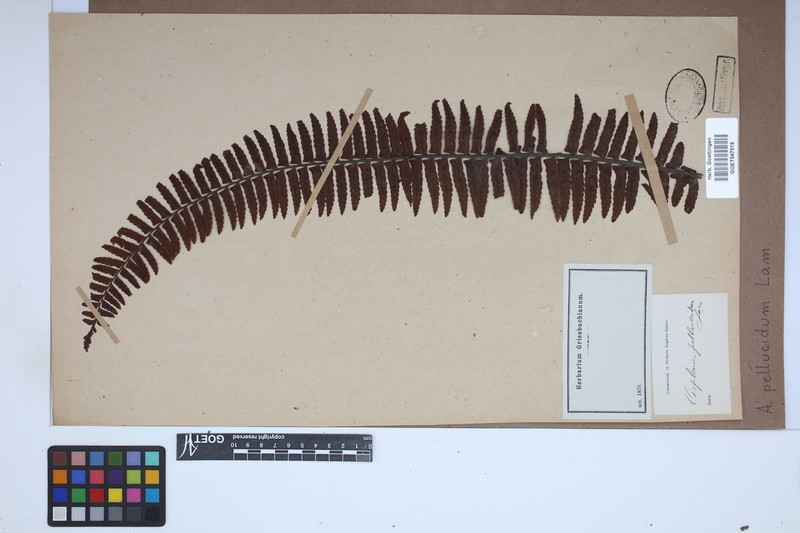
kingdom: Plantae
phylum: Tracheophyta
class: Polypodiopsida
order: Polypodiales
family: Aspleniaceae
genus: Asplenium
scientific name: Asplenium pellucidum
